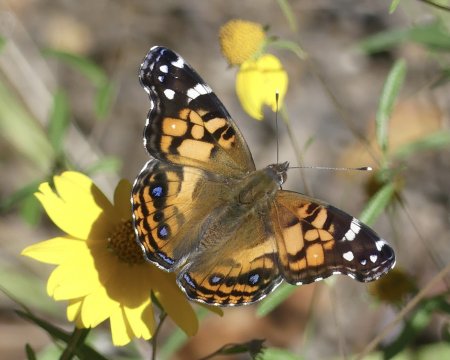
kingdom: Animalia
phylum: Arthropoda
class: Insecta
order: Lepidoptera
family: Nymphalidae
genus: Vanessa
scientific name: Vanessa virginiensis
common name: American Lady
